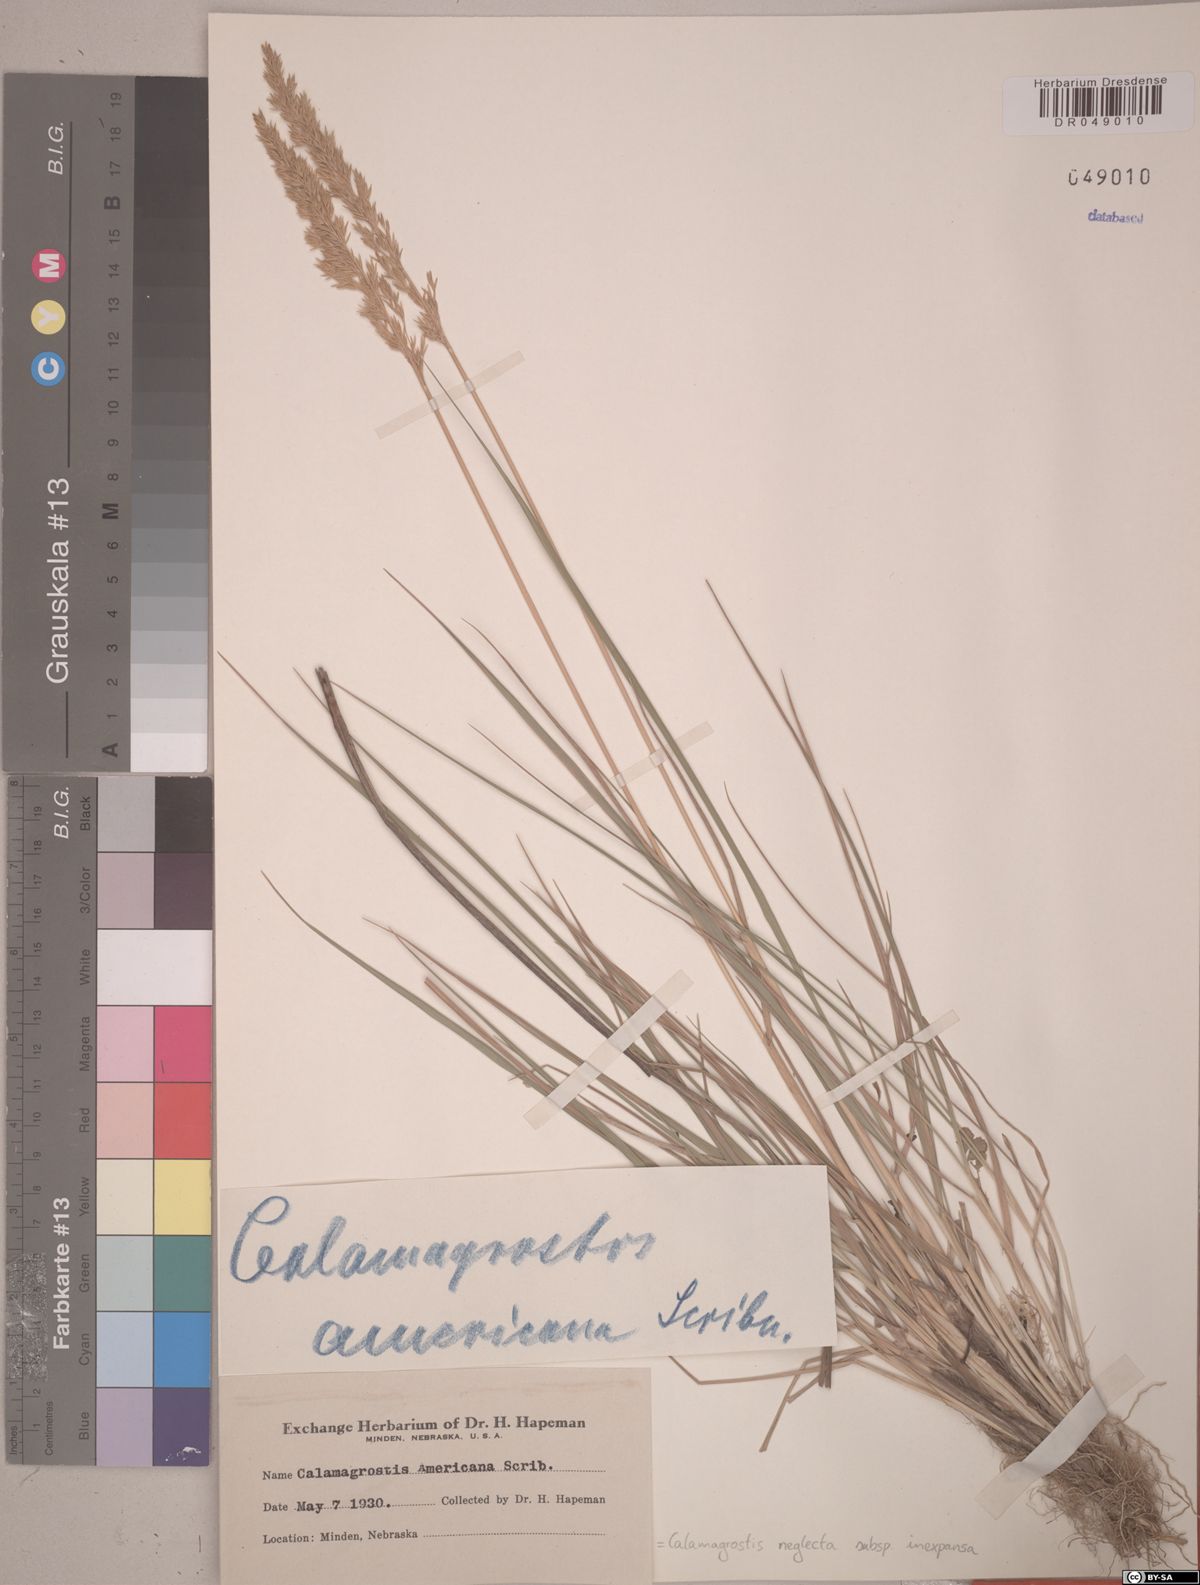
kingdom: Plantae
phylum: Tracheophyta
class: Liliopsida
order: Poales
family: Poaceae
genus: Calamagrostis
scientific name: Calamagrostis inexpansa
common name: Northern reedgrass
